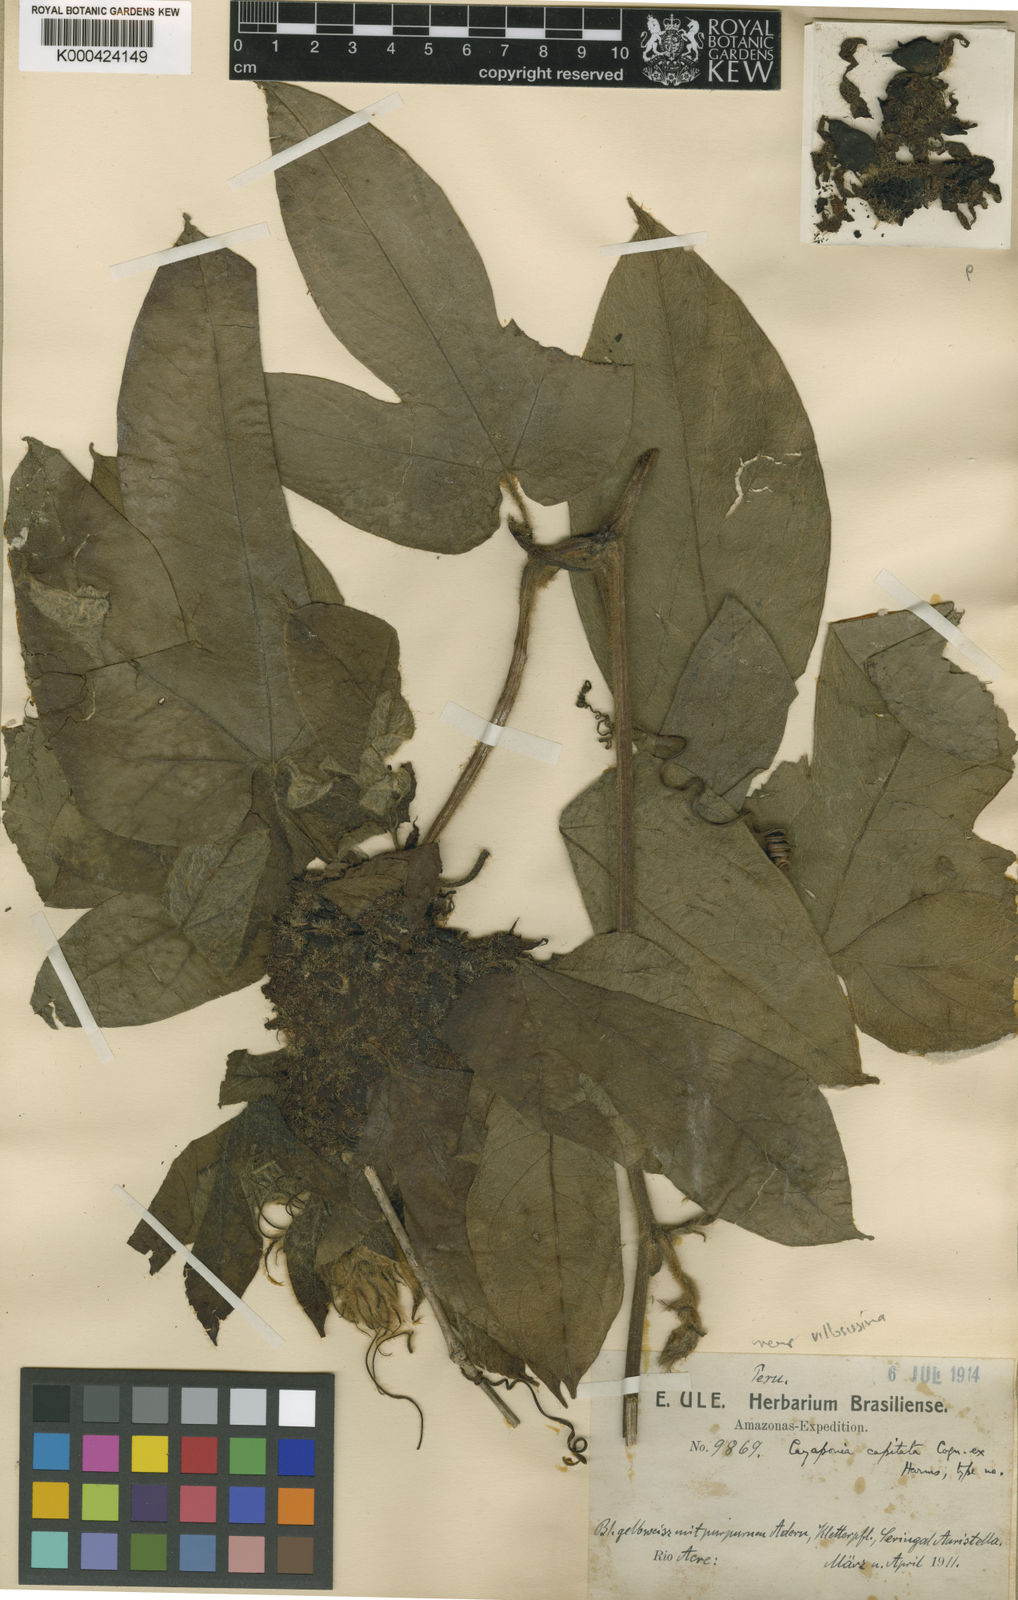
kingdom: Plantae
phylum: Tracheophyta
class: Magnoliopsida
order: Cucurbitales
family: Cucurbitaceae
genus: Cayaponia
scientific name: Cayaponia capitata
